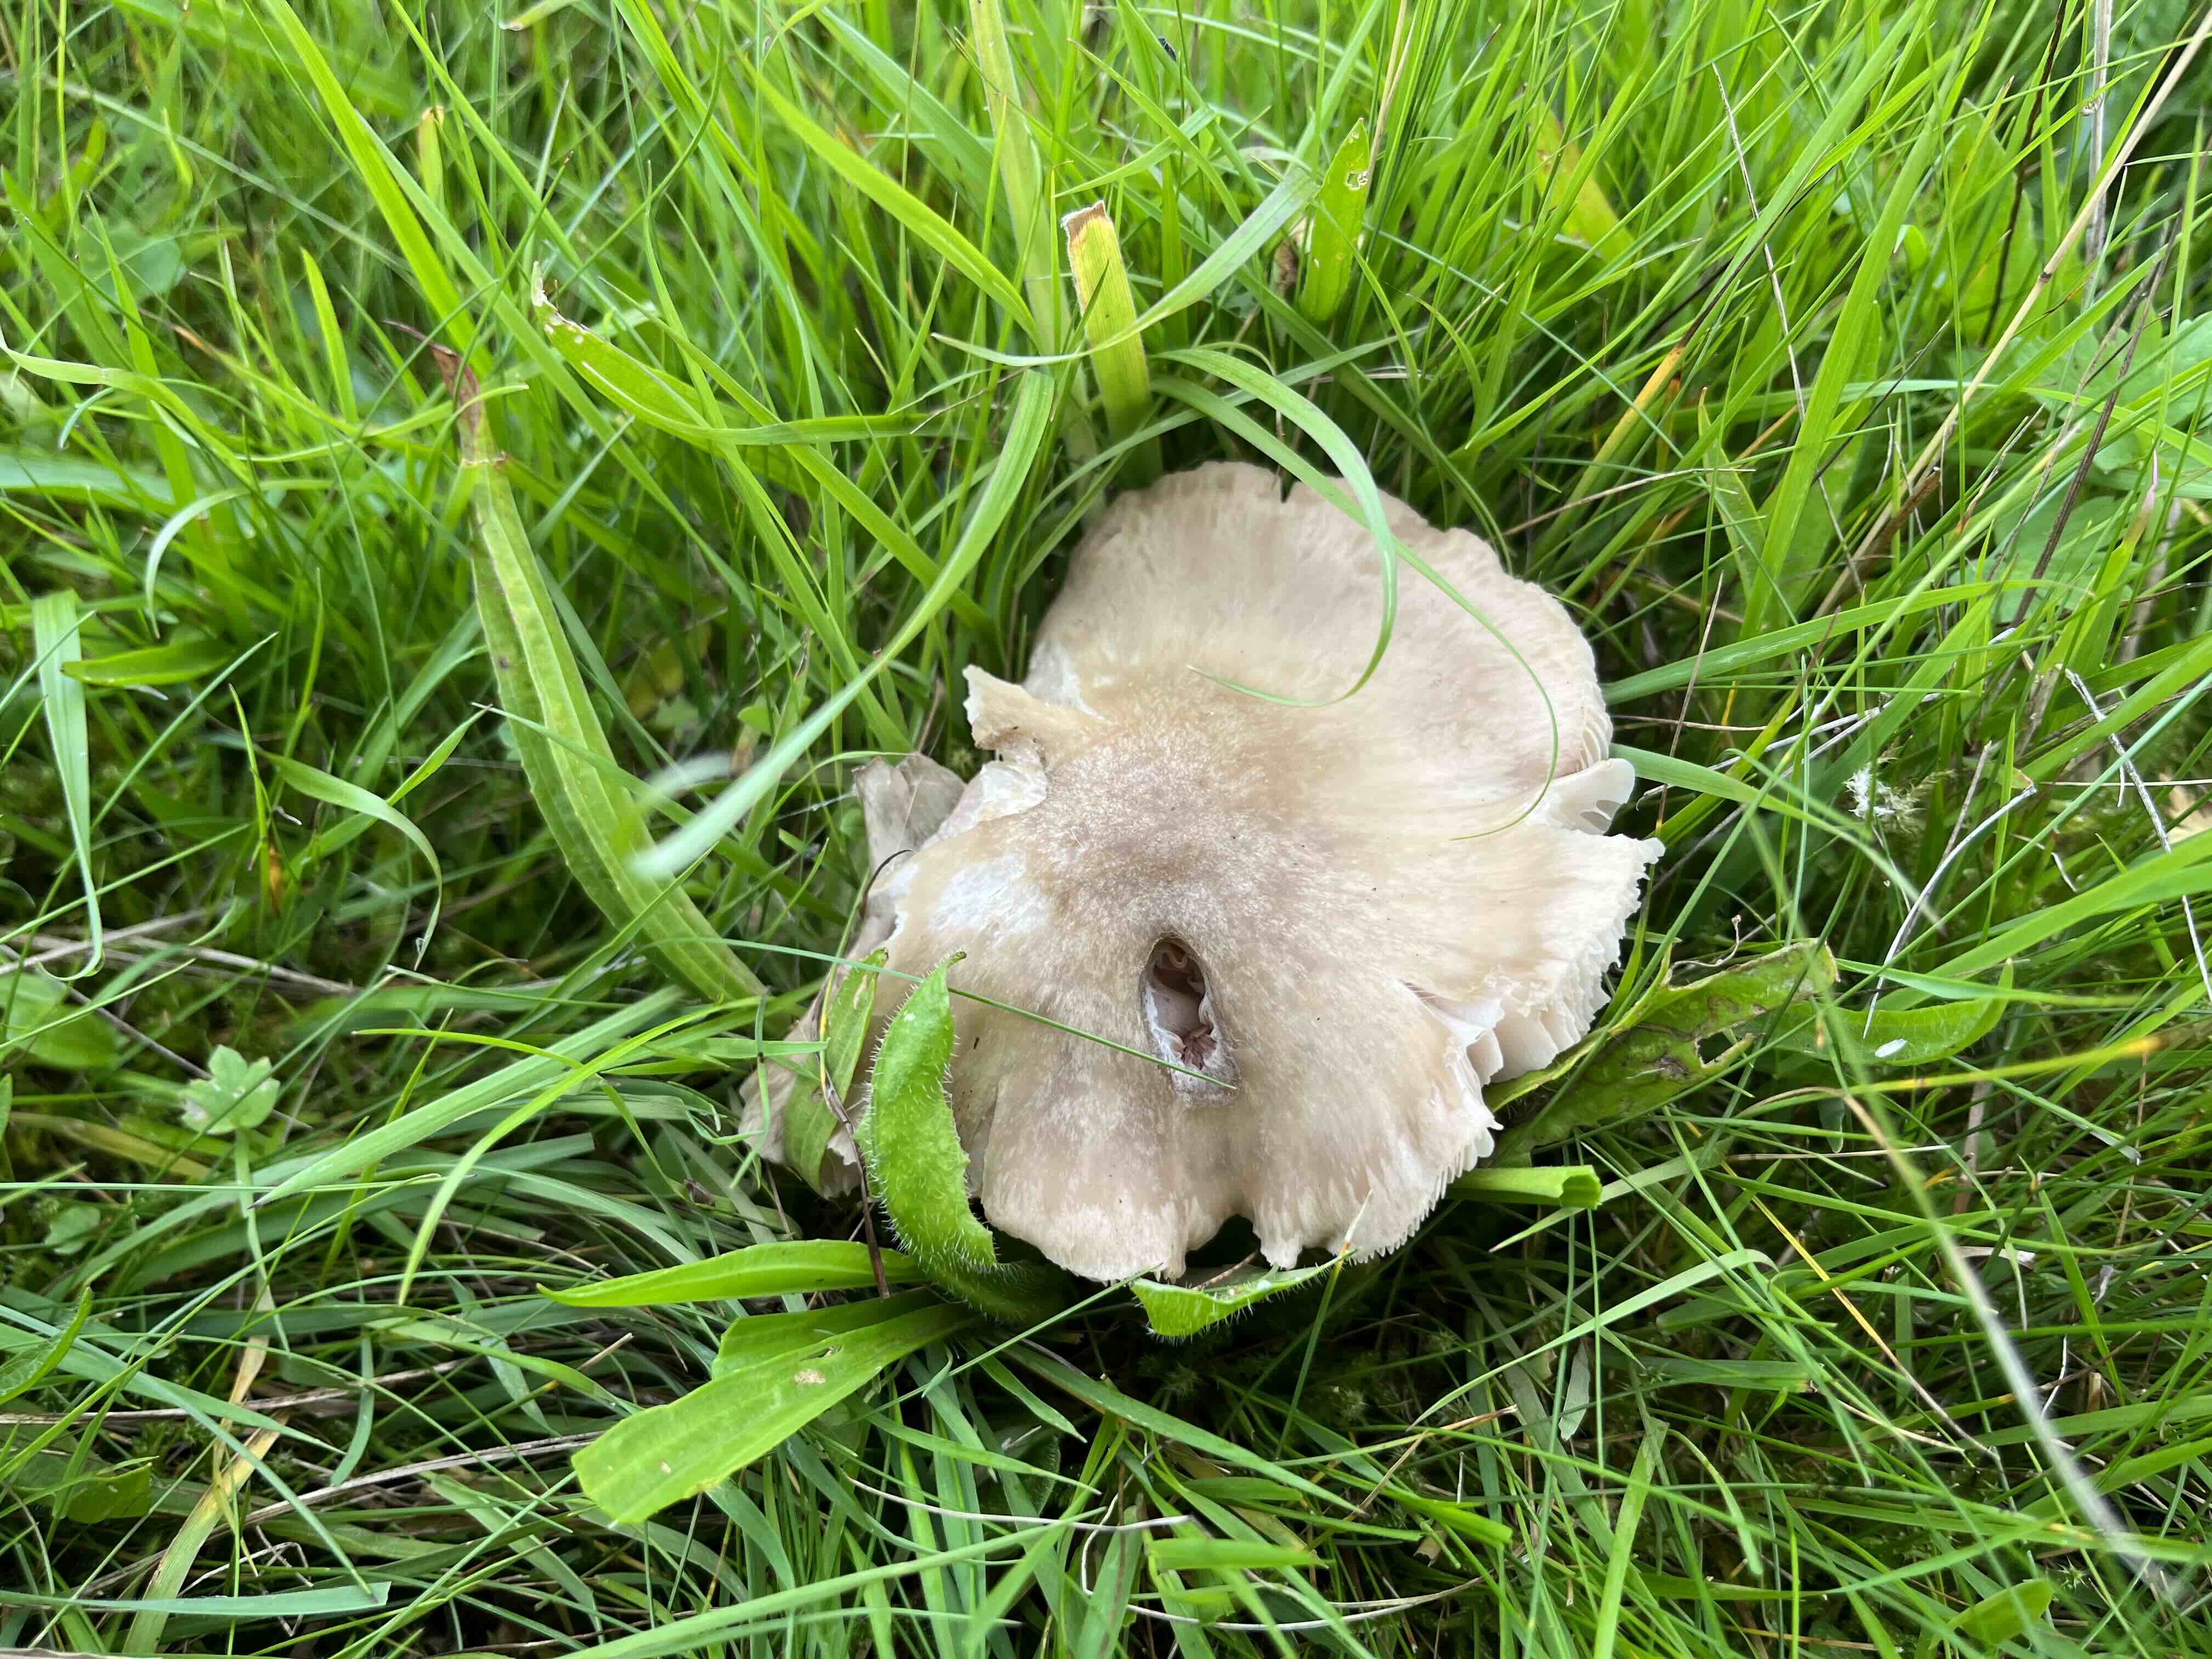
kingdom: Fungi
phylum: Basidiomycota
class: Agaricomycetes
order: Agaricales
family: Entolomataceae
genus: Entoloma
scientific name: Entoloma prunuloides
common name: mel-rødblad
